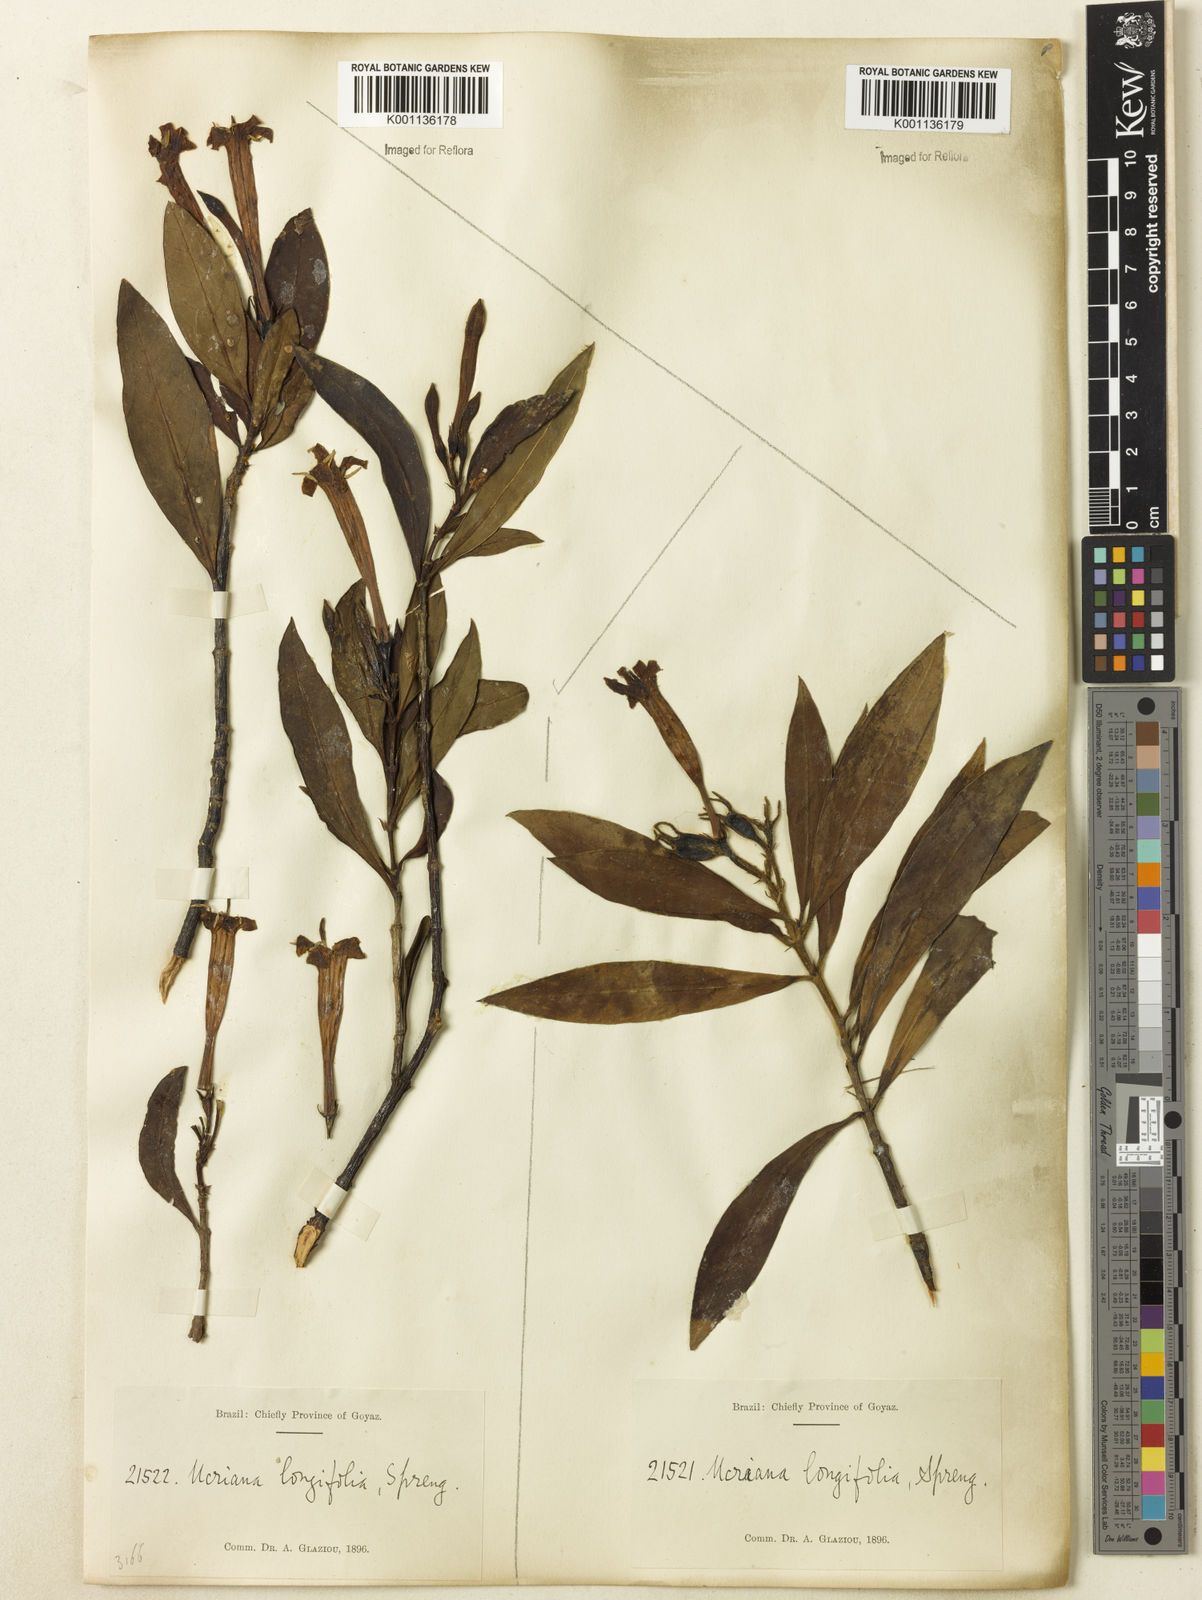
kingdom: Plantae
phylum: Tracheophyta
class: Magnoliopsida
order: Gentianales
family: Rubiaceae
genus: Augusta
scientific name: Augusta longifolia
